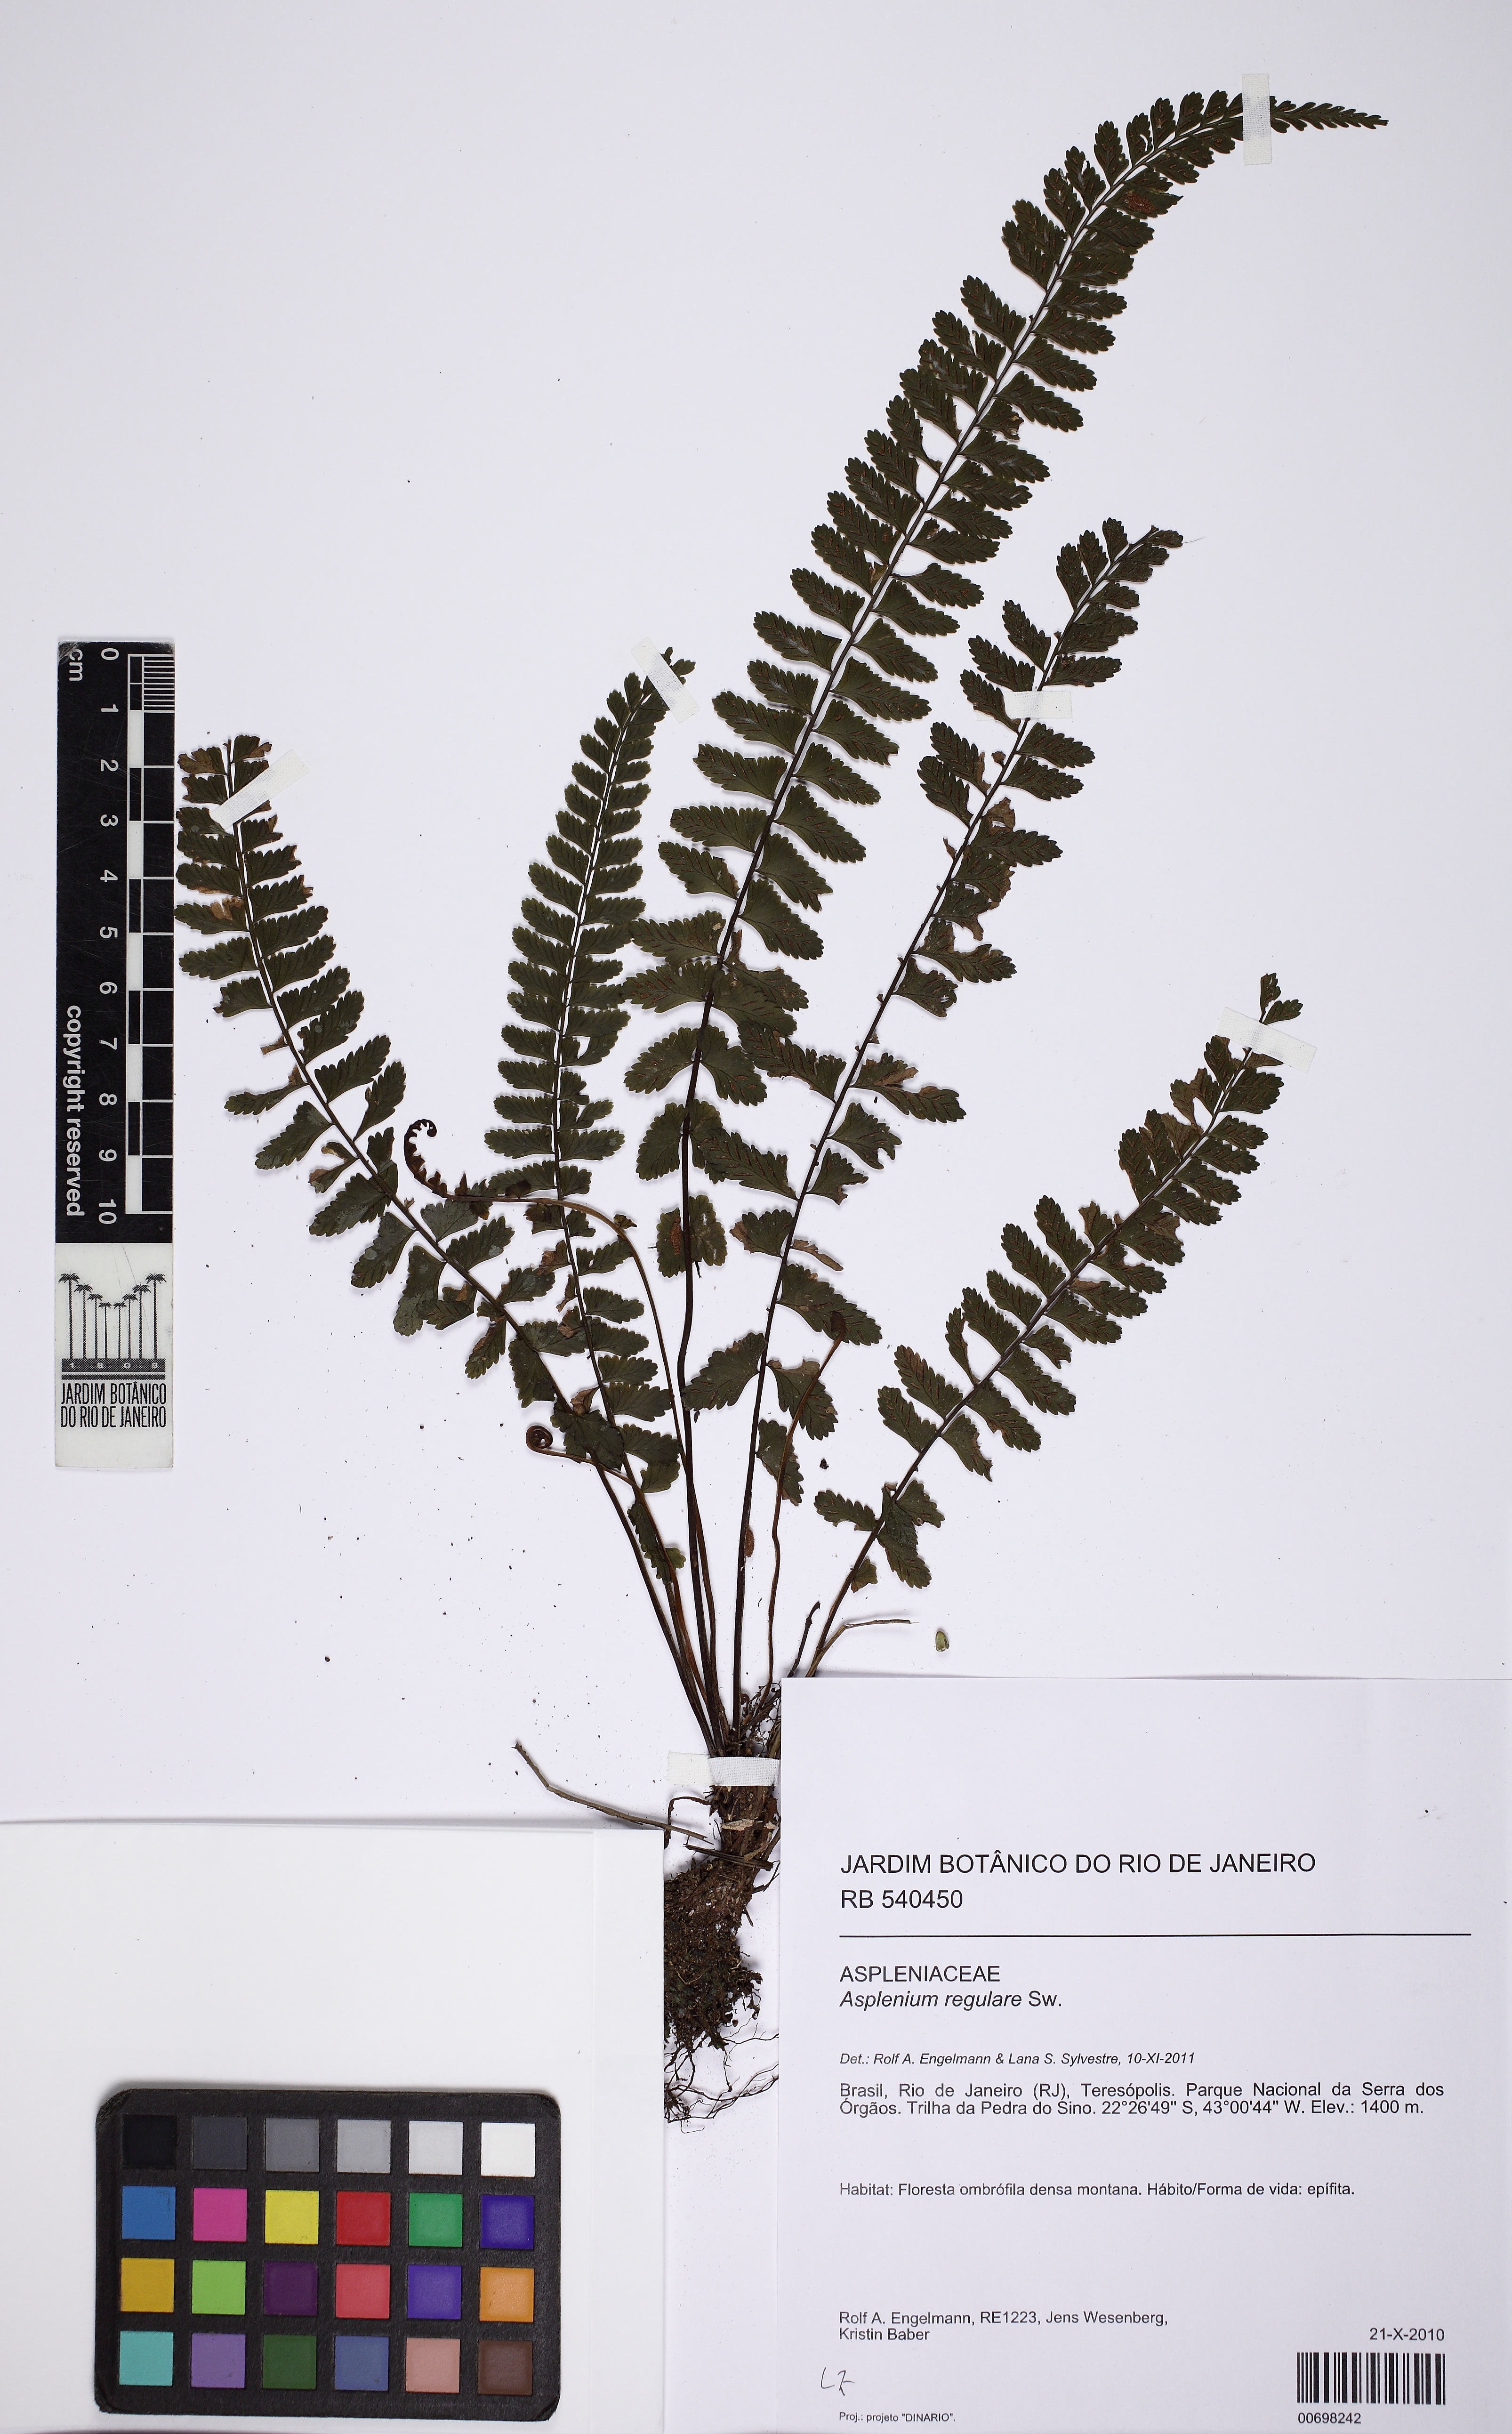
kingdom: Plantae
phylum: Tracheophyta
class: Polypodiopsida
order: Polypodiales
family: Aspleniaceae
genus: Asplenium
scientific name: Asplenium regulare
